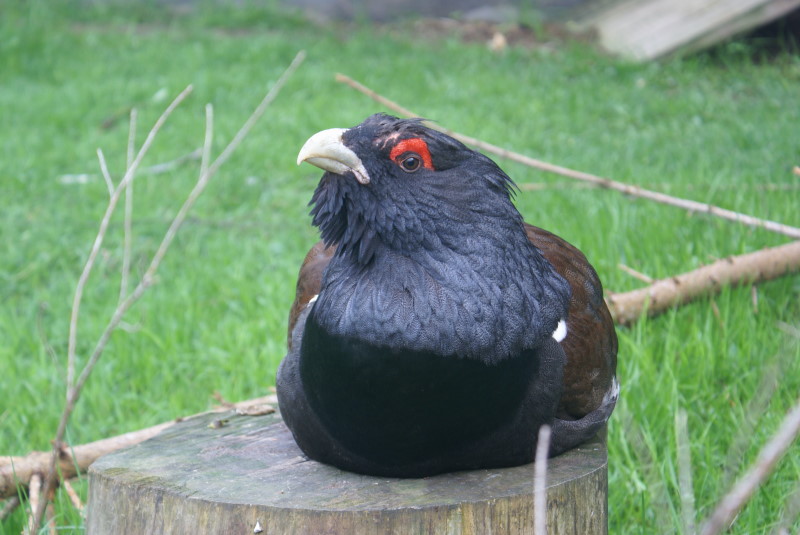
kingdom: Animalia
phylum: Chordata
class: Aves
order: Galliformes
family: Phasianidae
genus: Tetrao
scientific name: Tetrao urogallus
